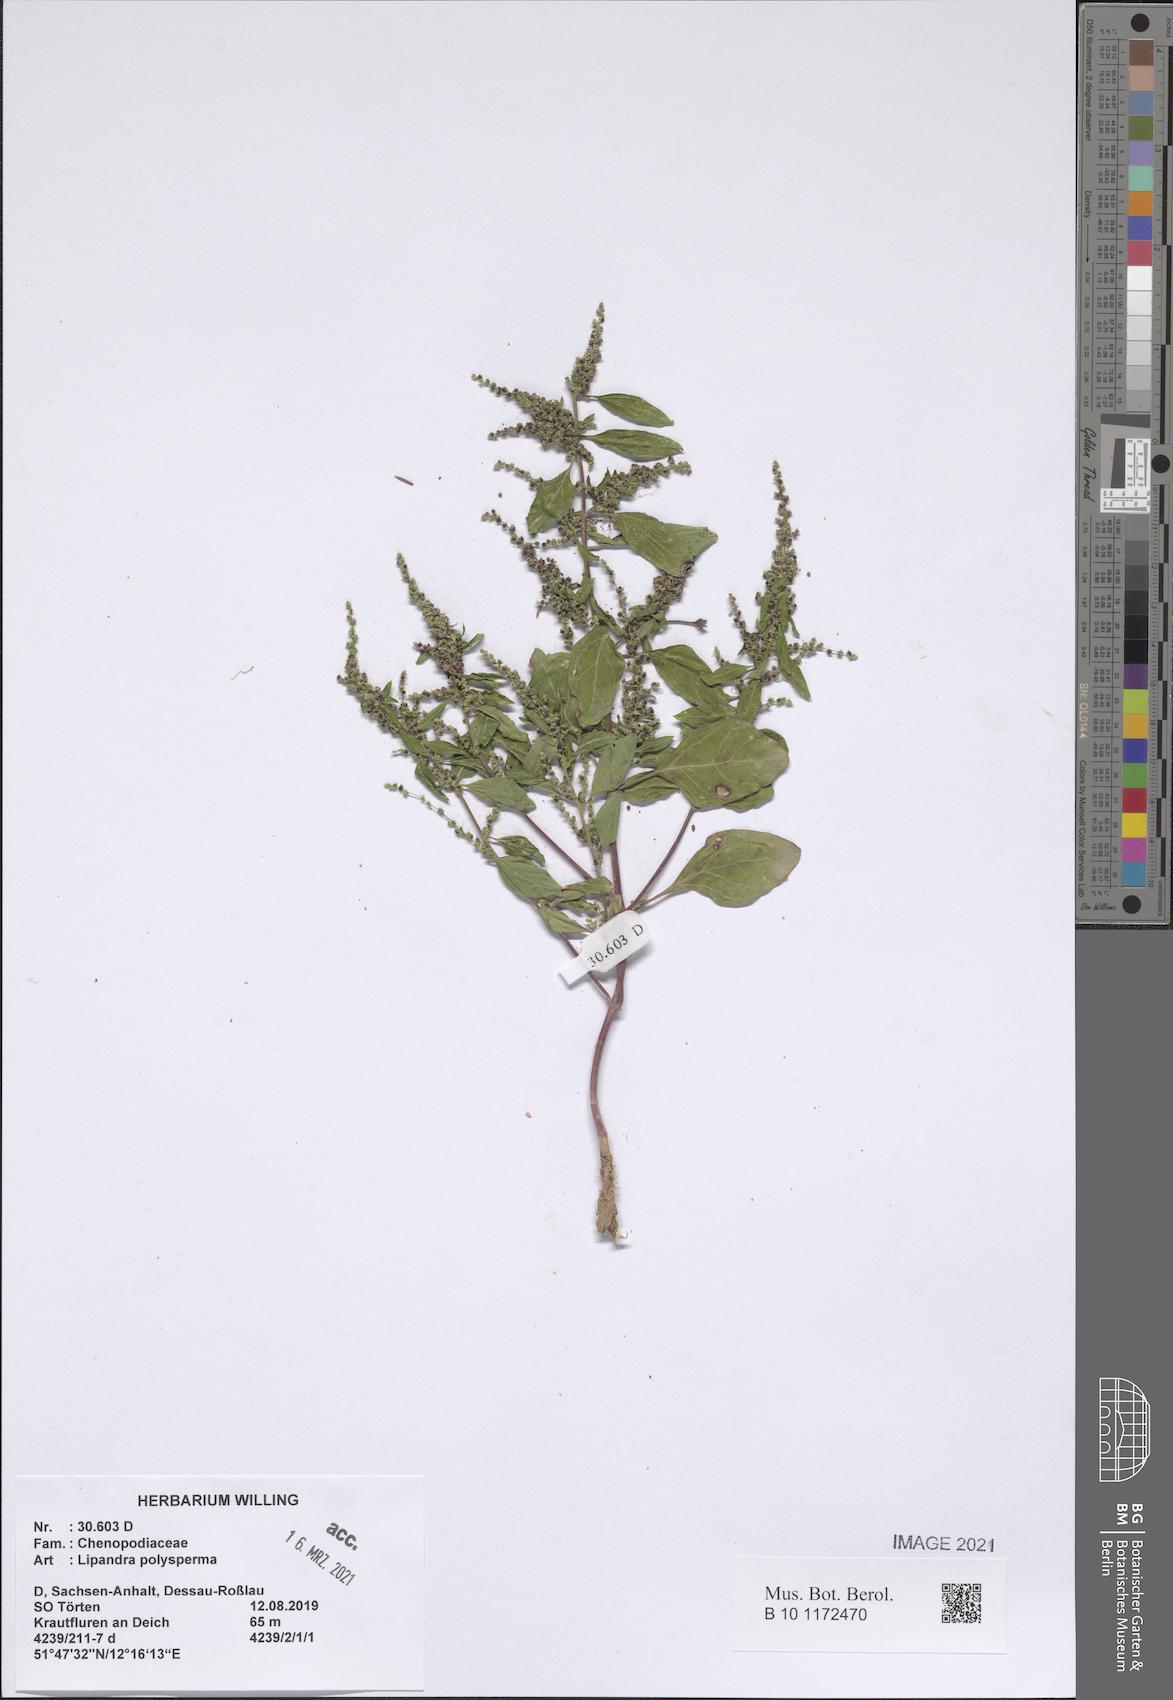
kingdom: Plantae
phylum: Tracheophyta
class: Magnoliopsida
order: Caryophyllales
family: Amaranthaceae
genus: Lipandra
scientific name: Lipandra polysperma
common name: Many-seed goosefoot
